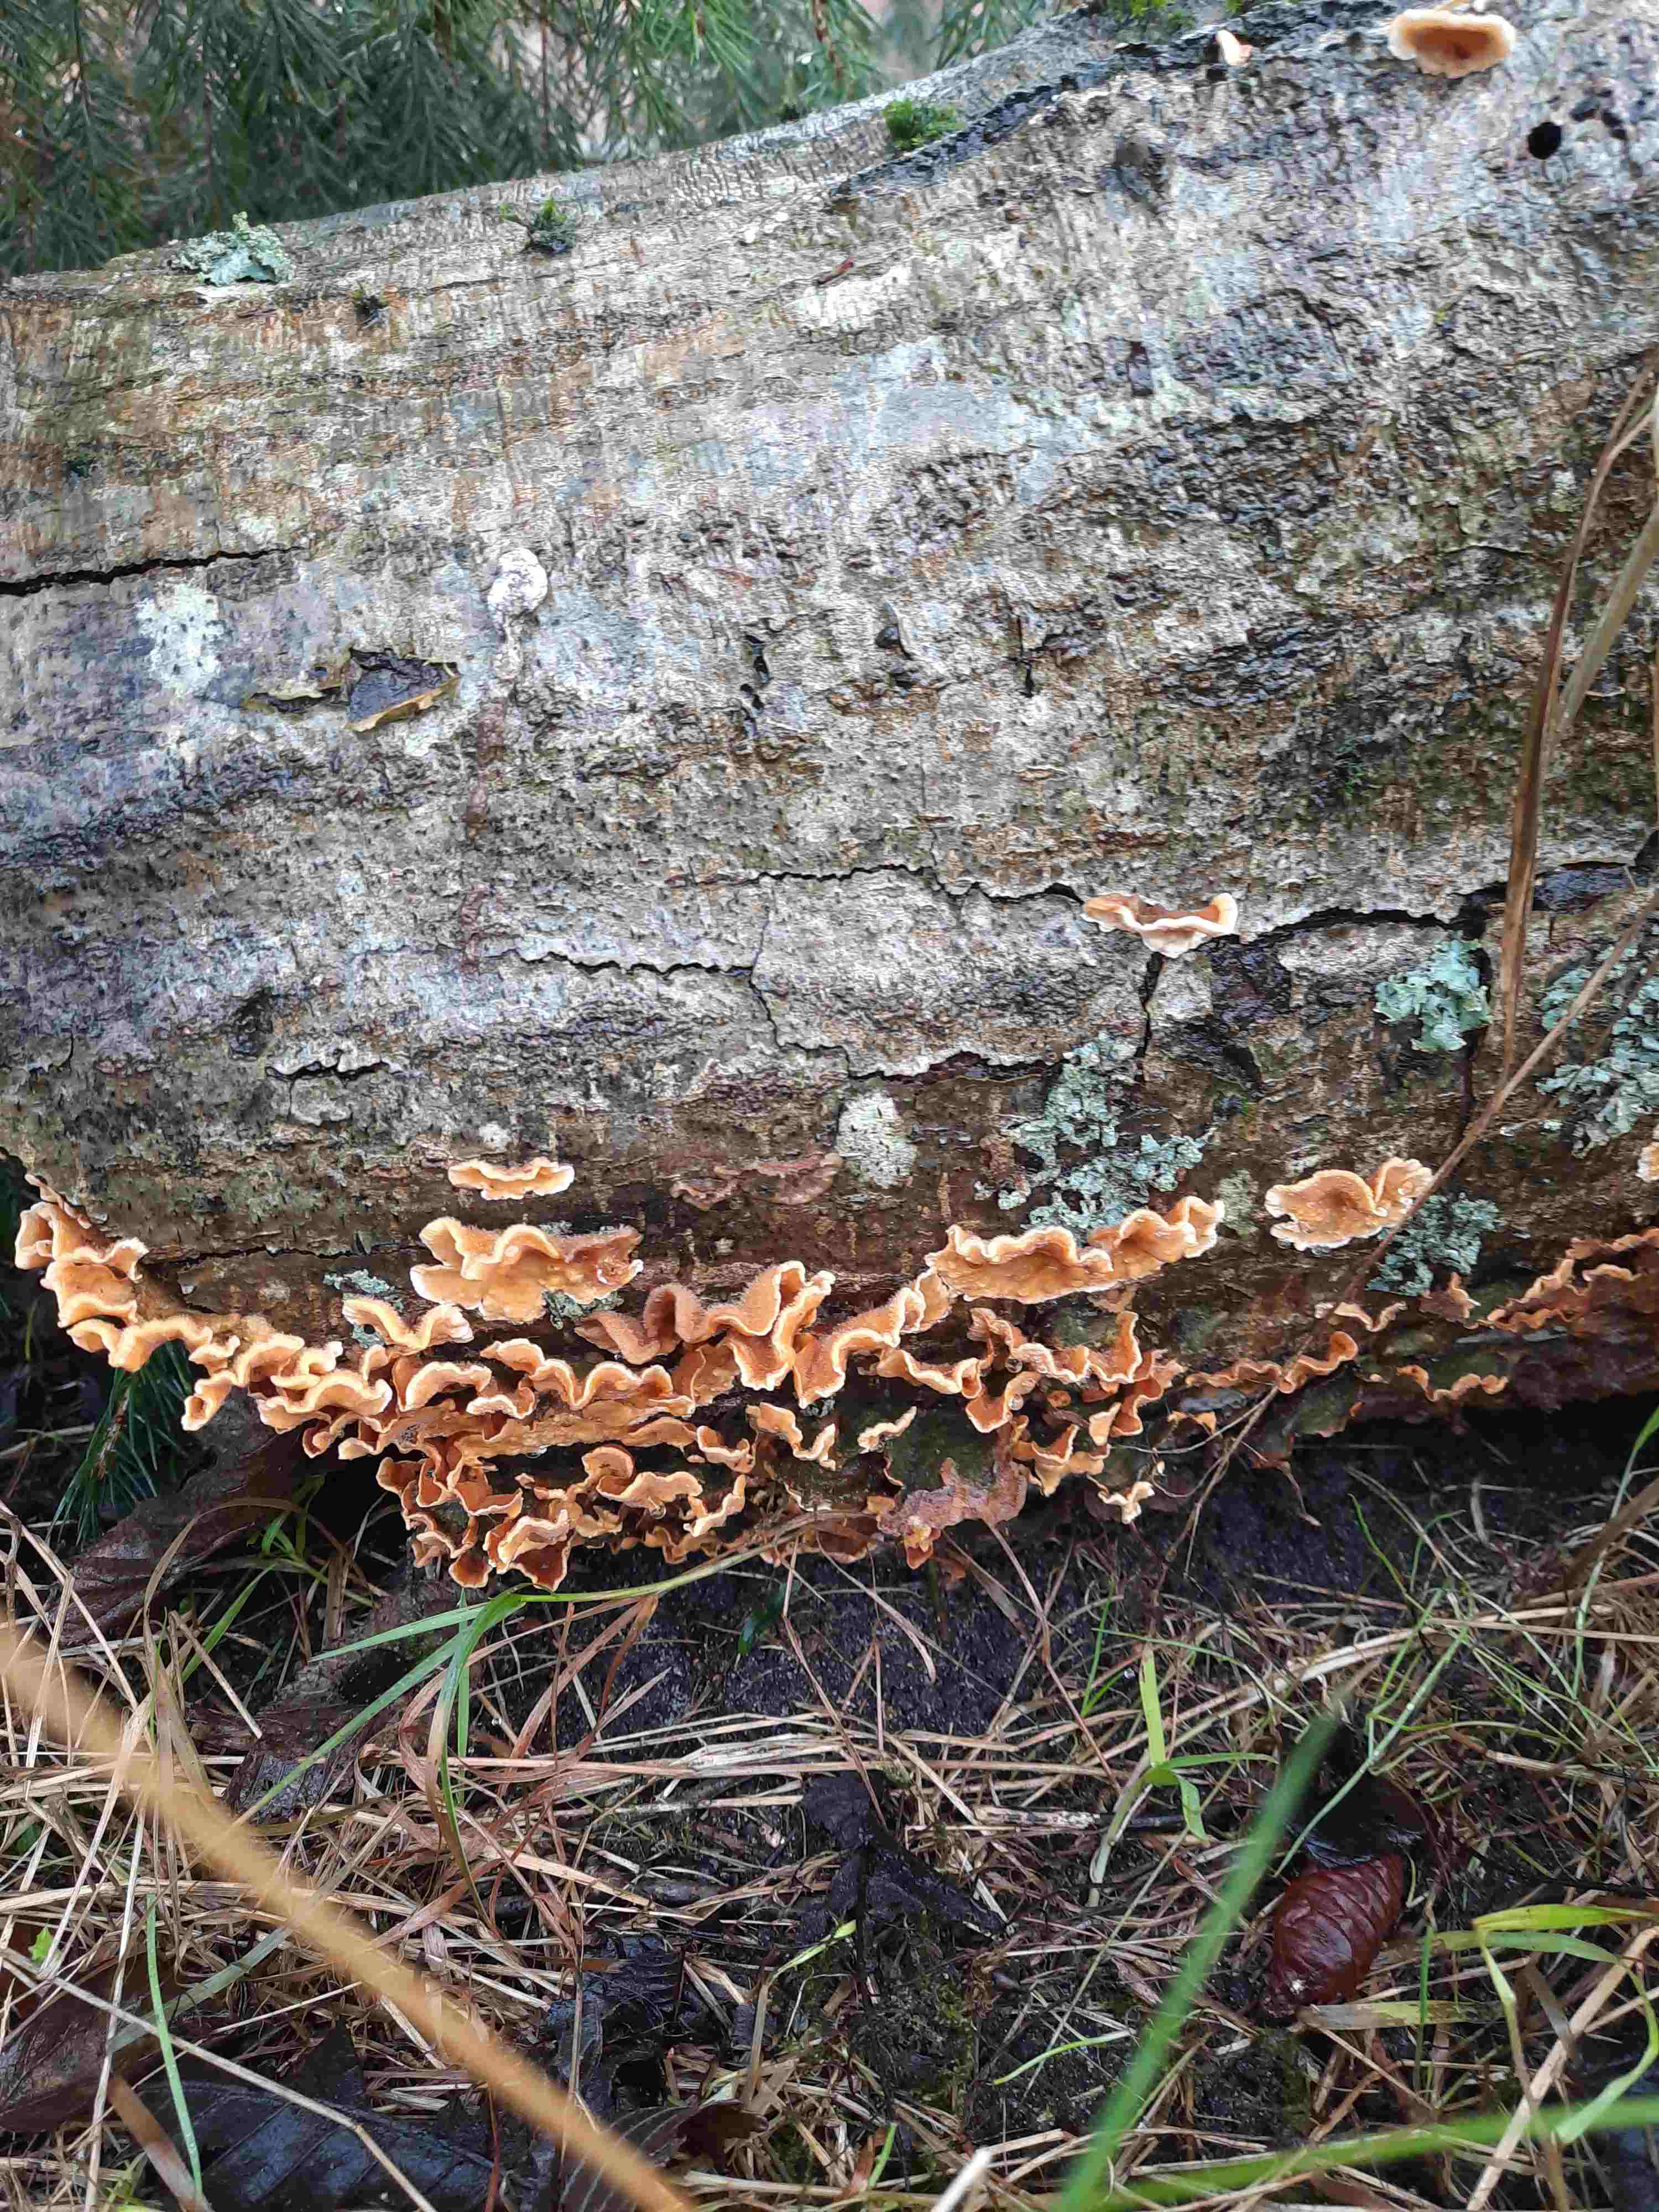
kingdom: Fungi
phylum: Basidiomycota
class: Agaricomycetes
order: Russulales
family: Stereaceae
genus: Stereum
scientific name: Stereum hirsutum
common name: håret lædersvamp
